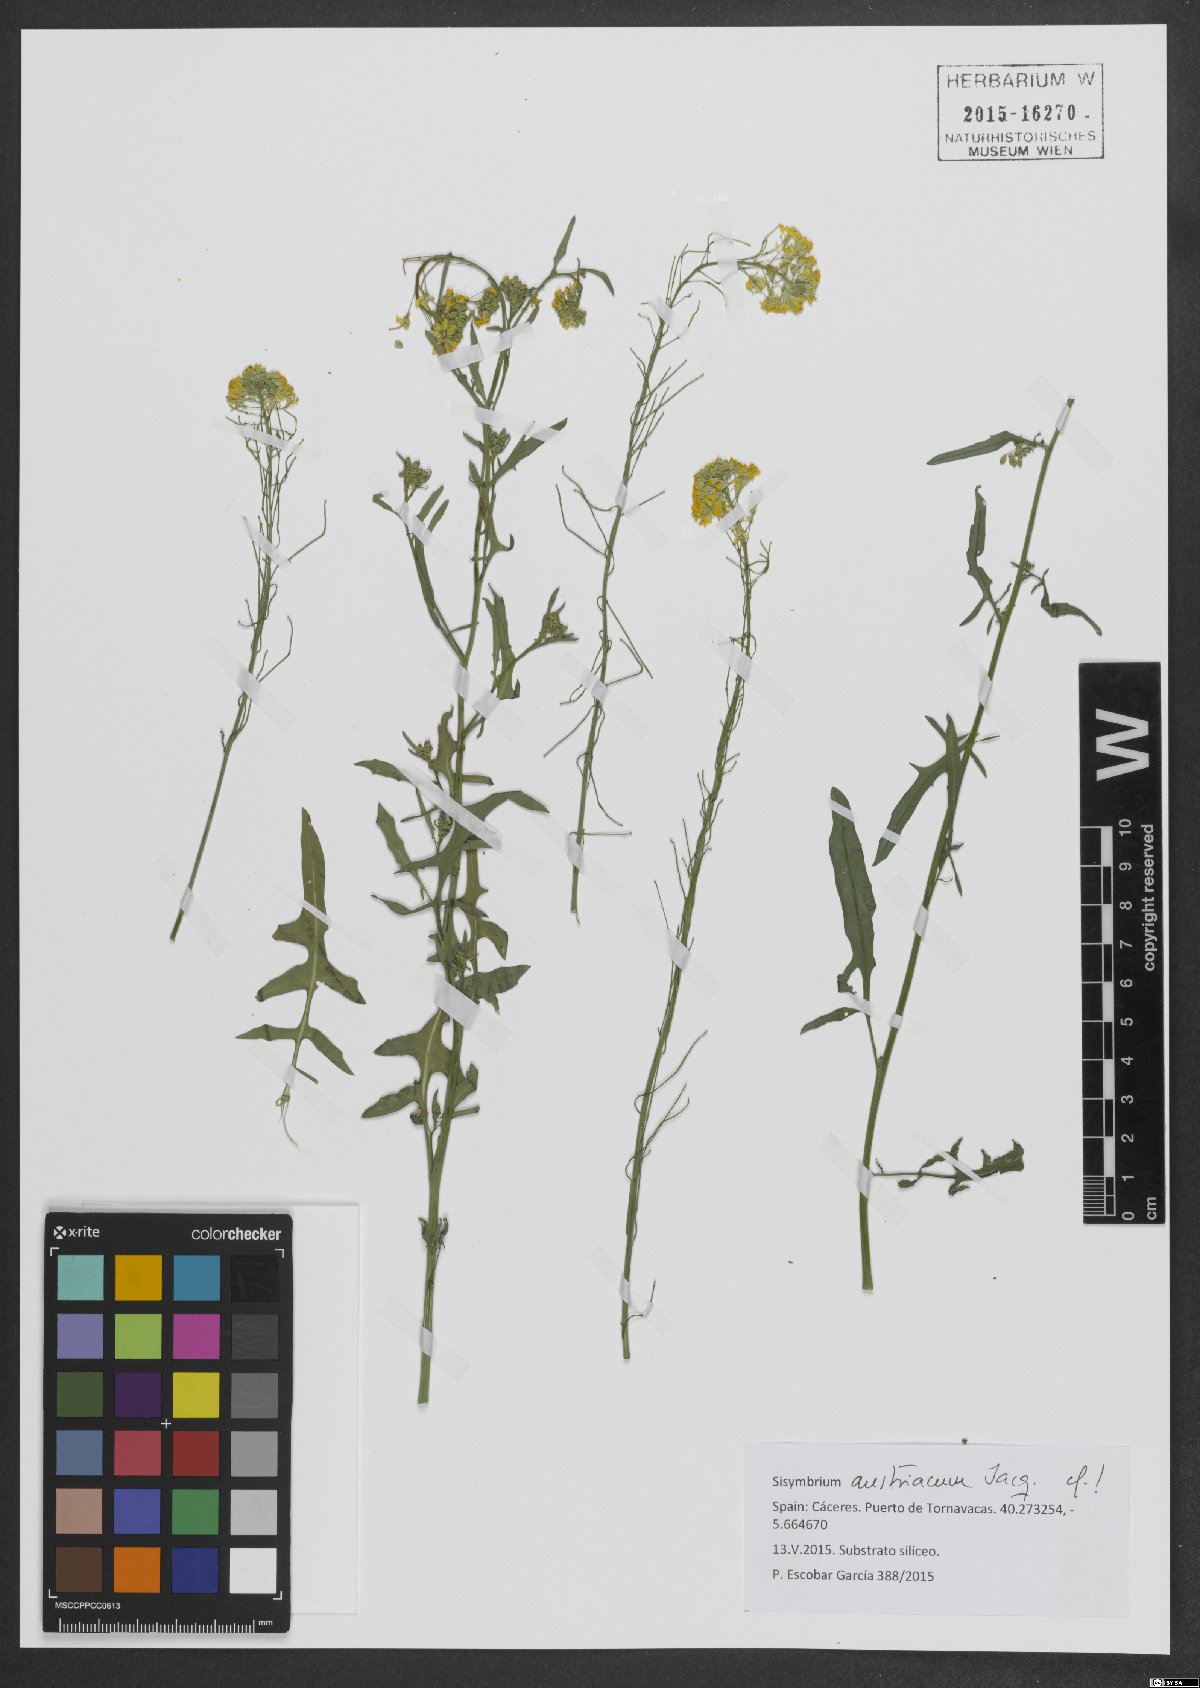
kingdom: Plantae
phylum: Tracheophyta
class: Magnoliopsida
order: Brassicales
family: Brassicaceae
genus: Sisymbrium
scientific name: Sisymbrium austriacum
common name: Jeweled rocket
